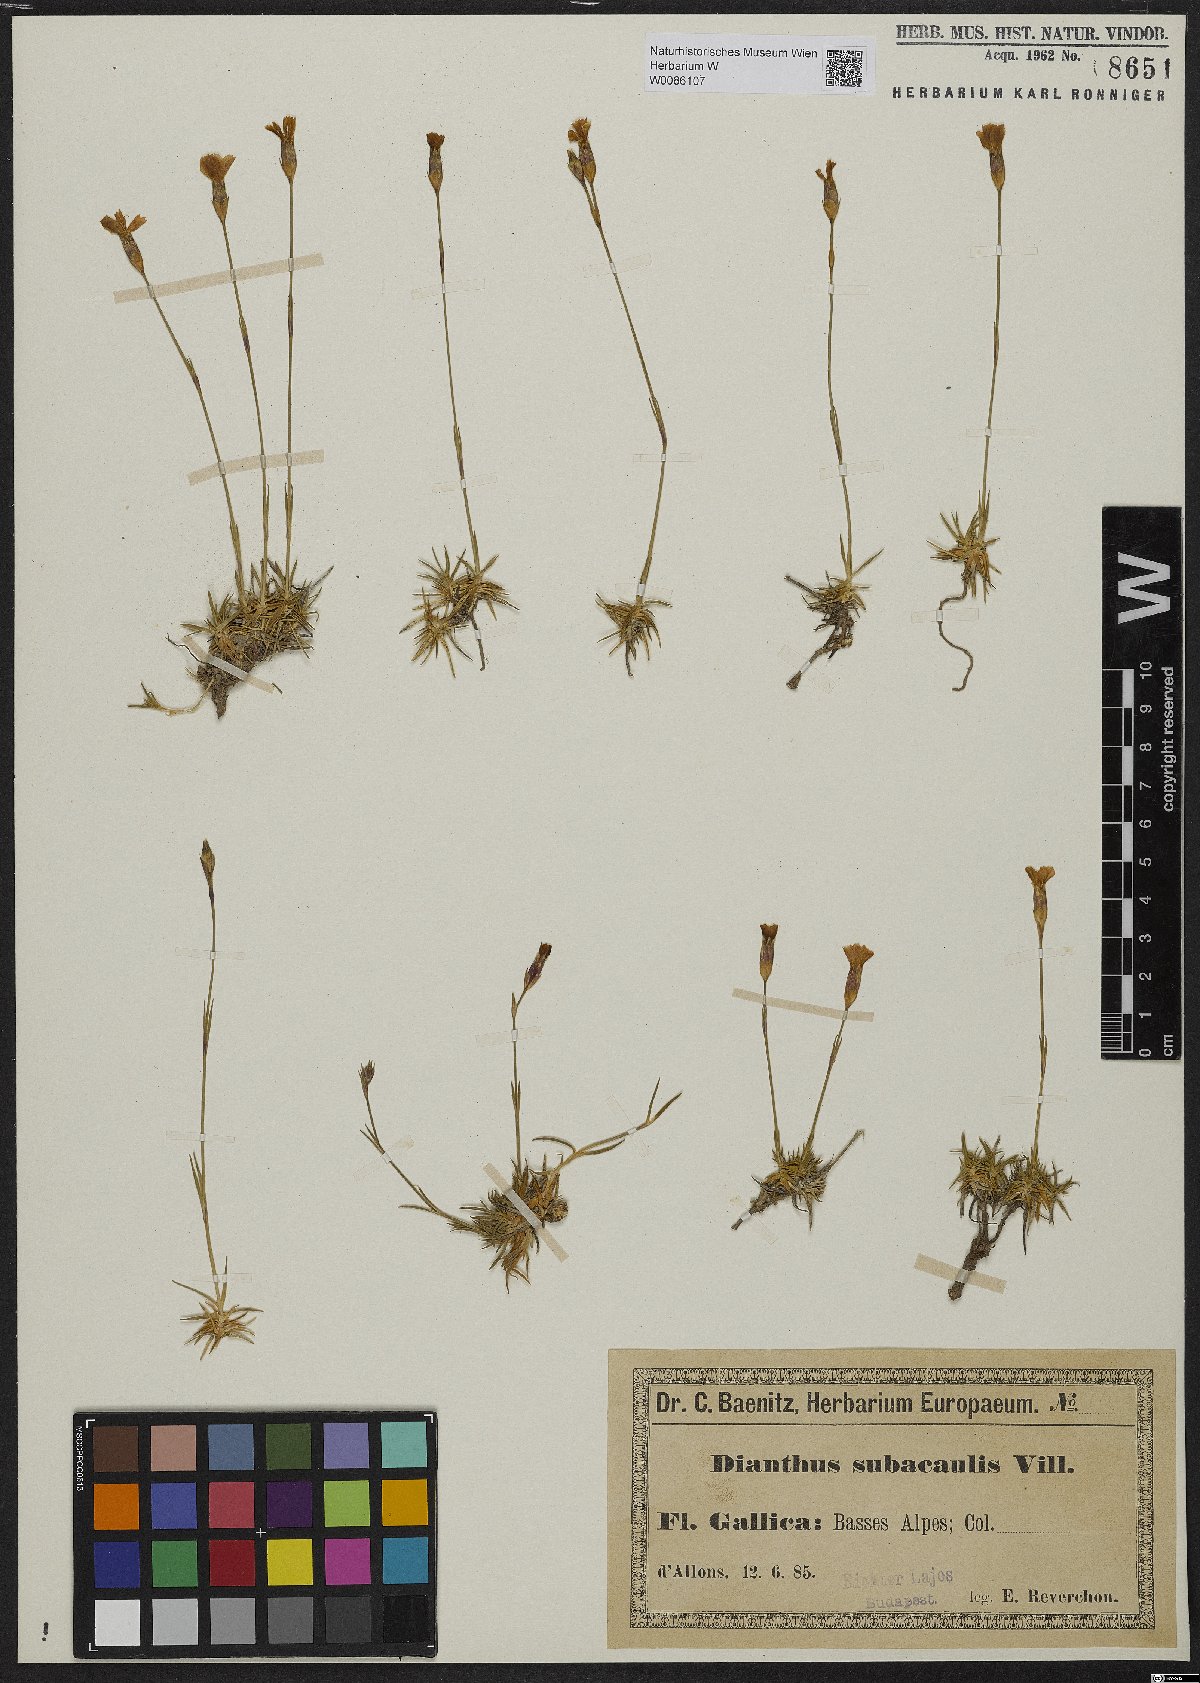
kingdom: Plantae
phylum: Tracheophyta
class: Magnoliopsida
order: Caryophyllales
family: Caryophyllaceae
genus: Dianthus
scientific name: Dianthus pungens
